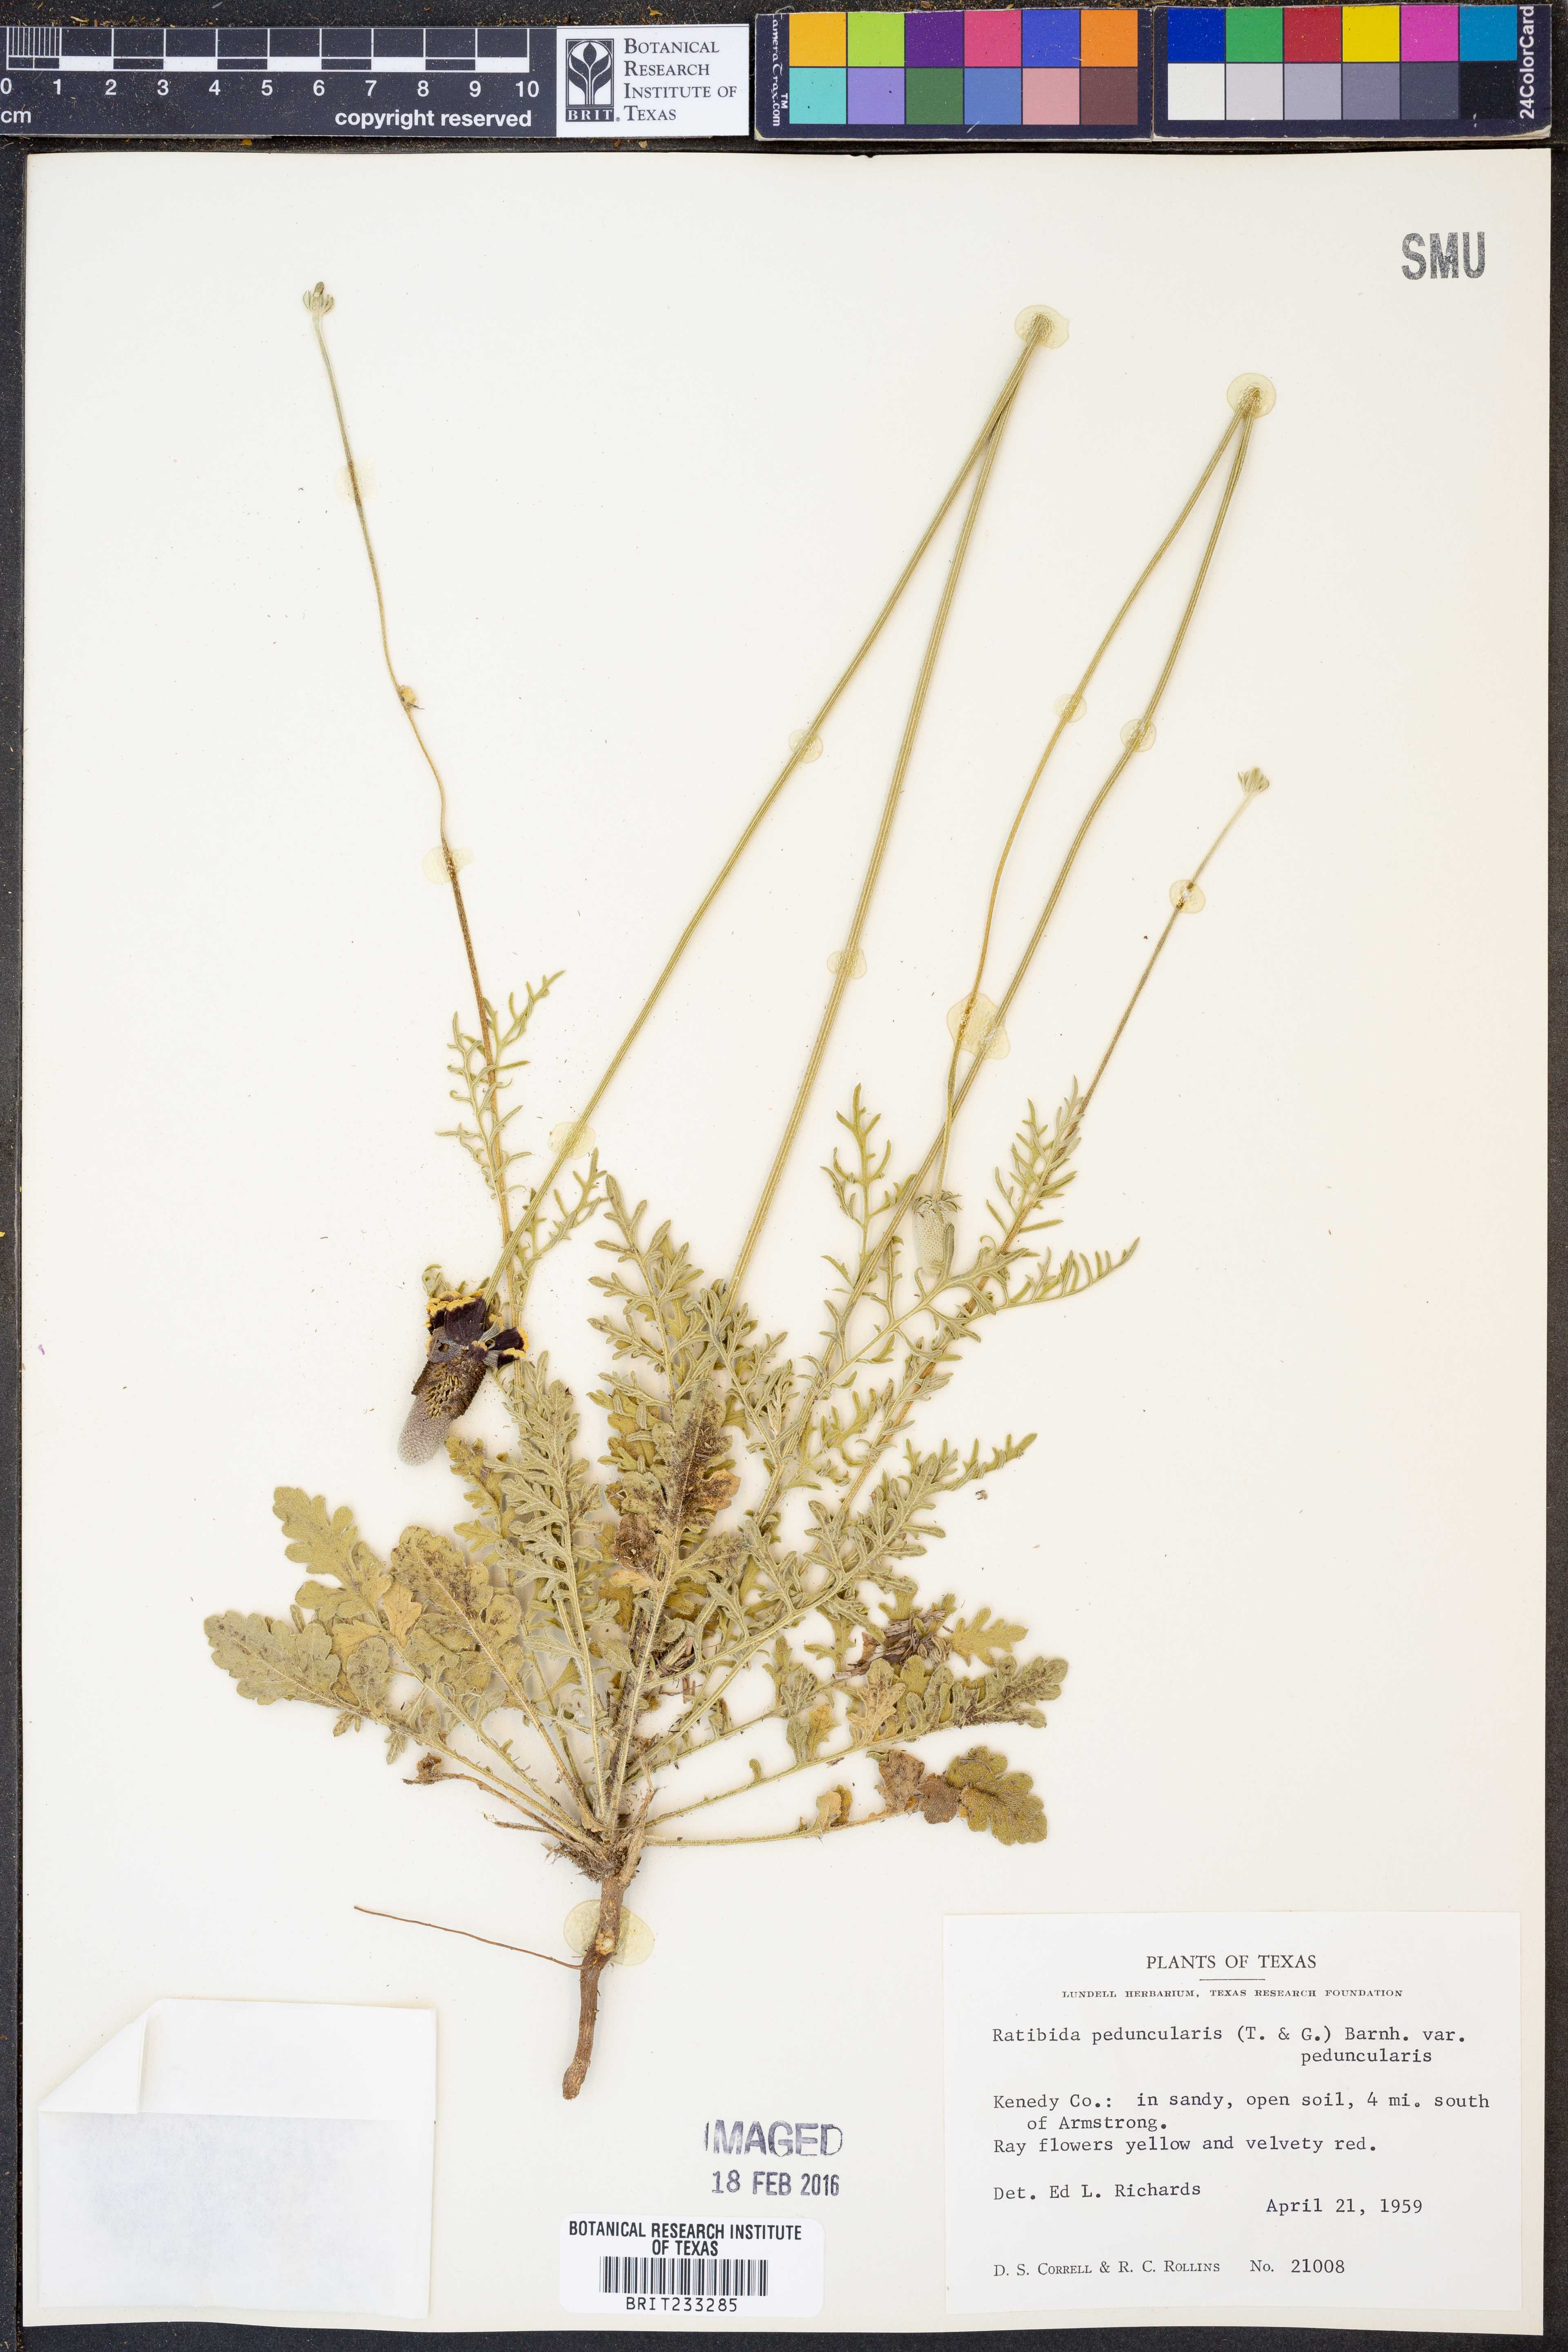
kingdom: Plantae
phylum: Tracheophyta
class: Magnoliopsida
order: Asterales
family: Asteraceae
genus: Ratibida
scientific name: Ratibida peduncularis
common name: Naked prairie-coneflower
